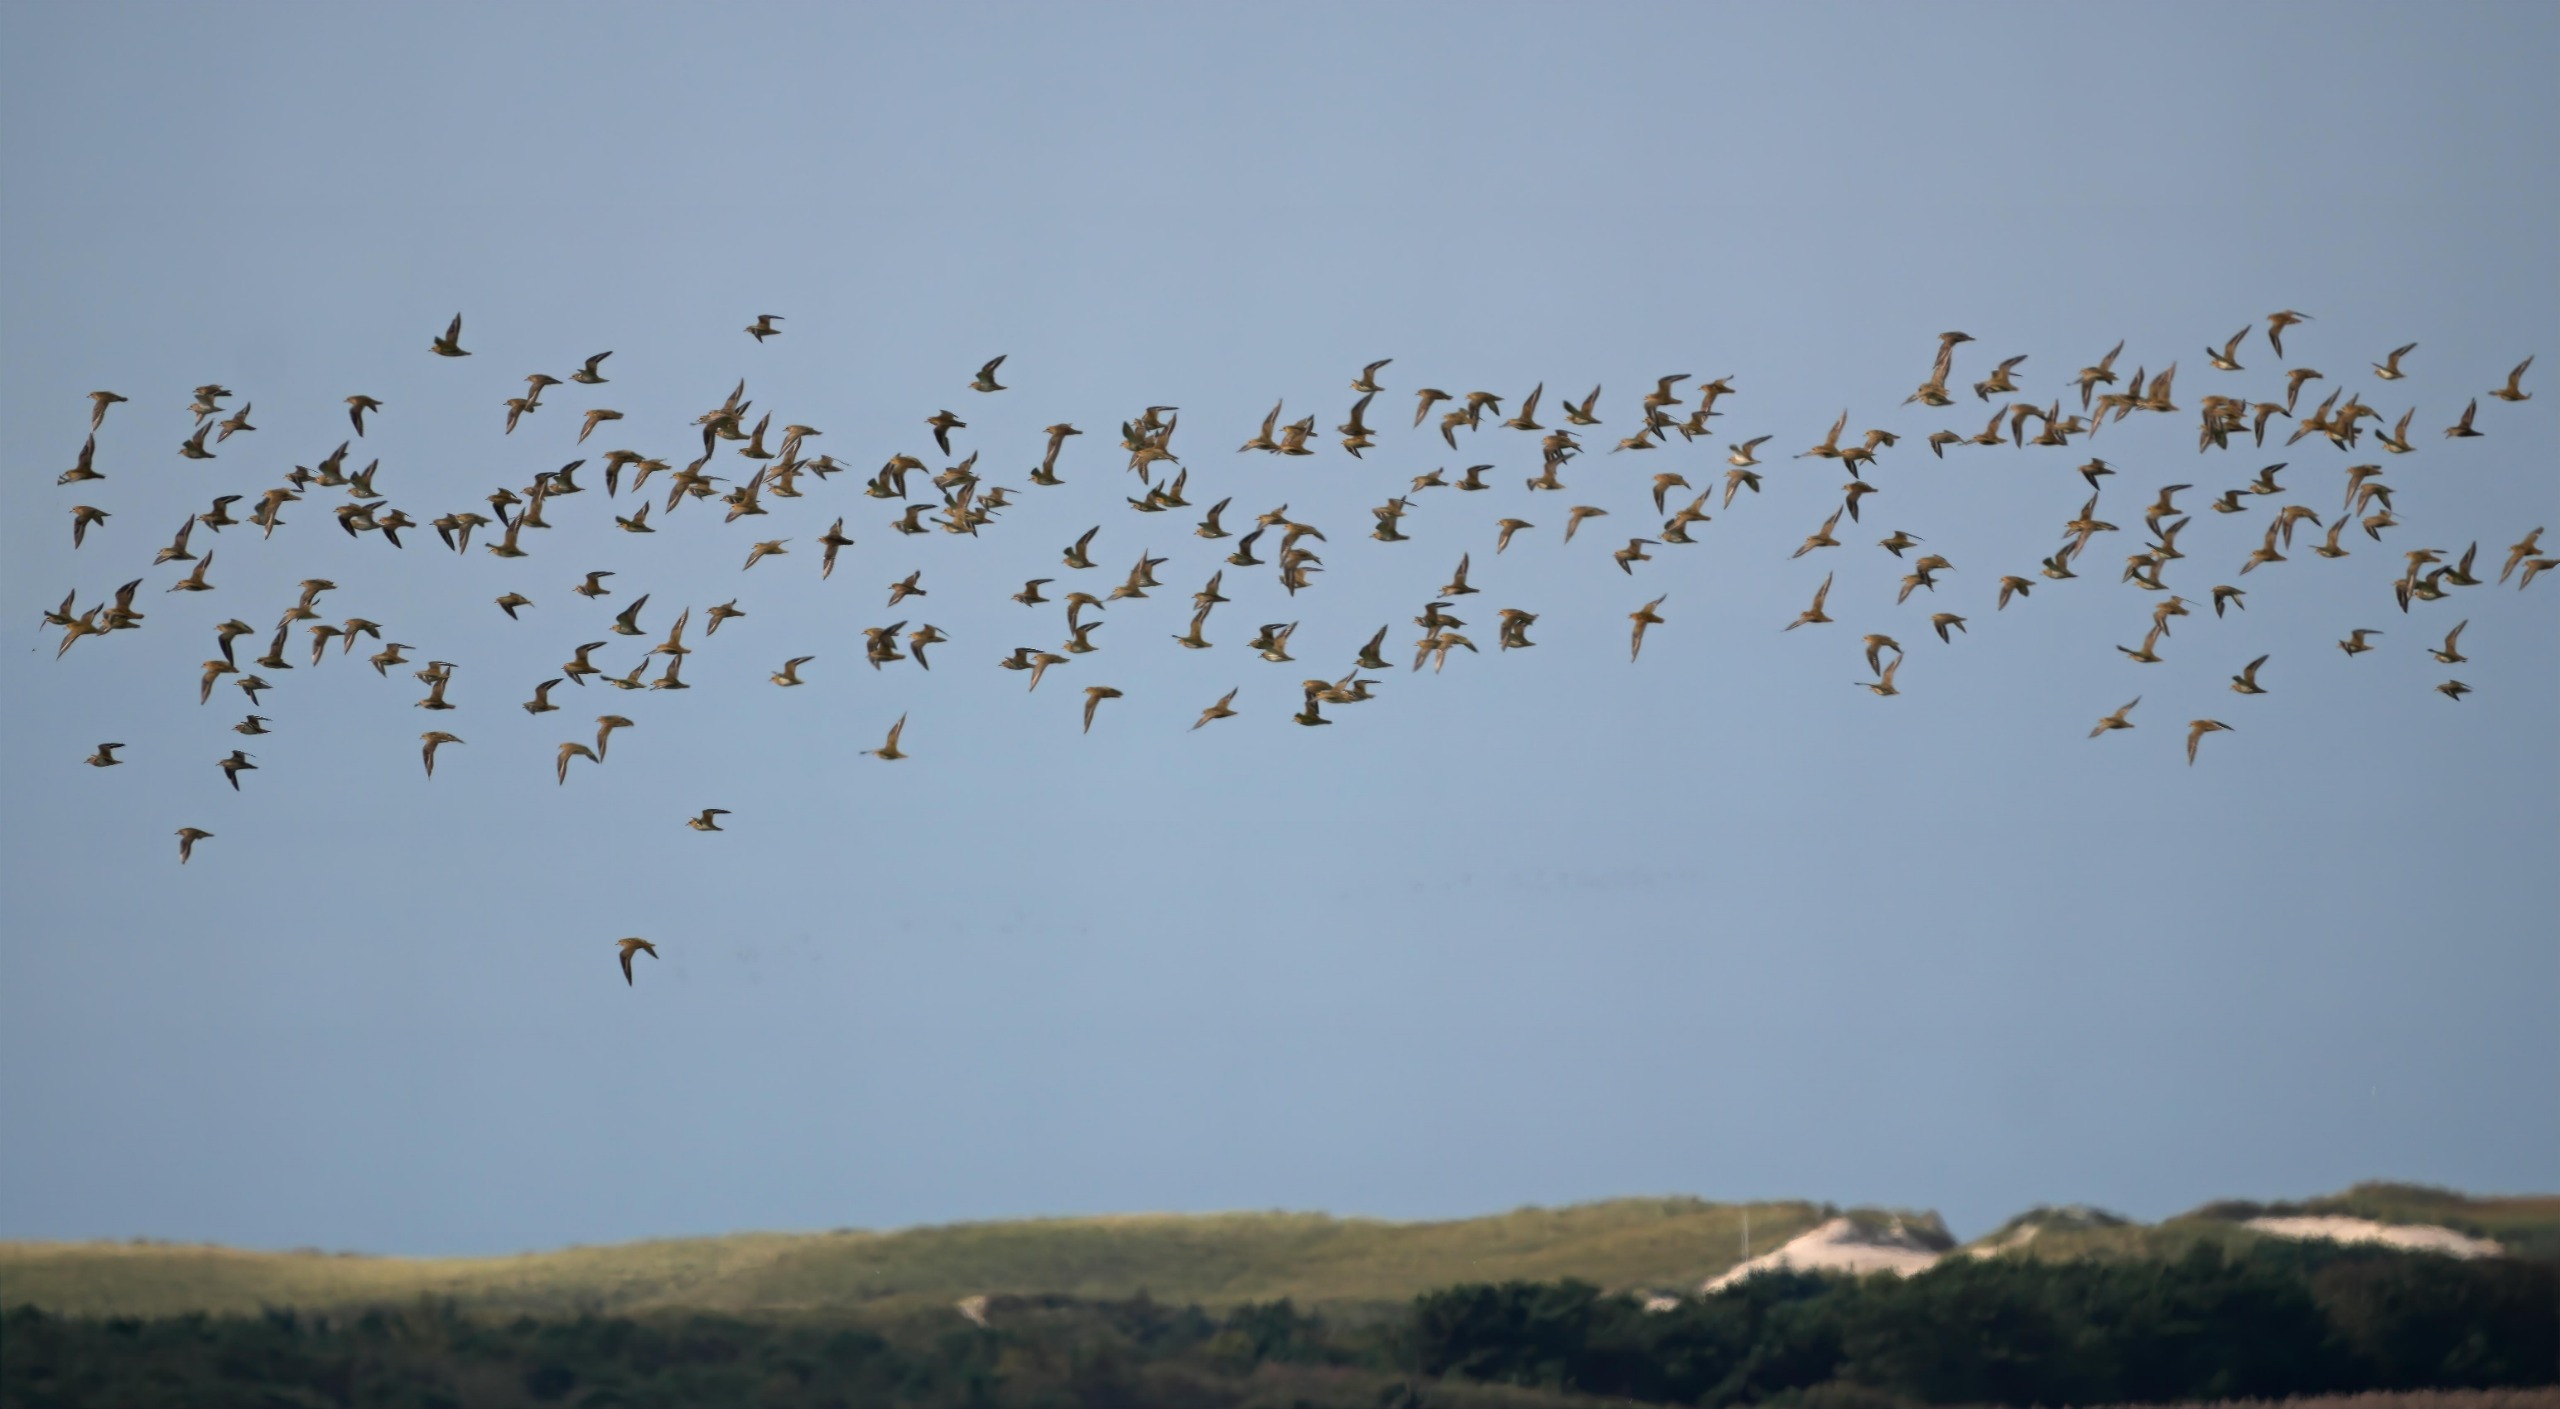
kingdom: Animalia
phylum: Chordata
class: Aves
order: Charadriiformes
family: Charadriidae
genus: Pluvialis
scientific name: Pluvialis apricaria
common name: Hjejle
